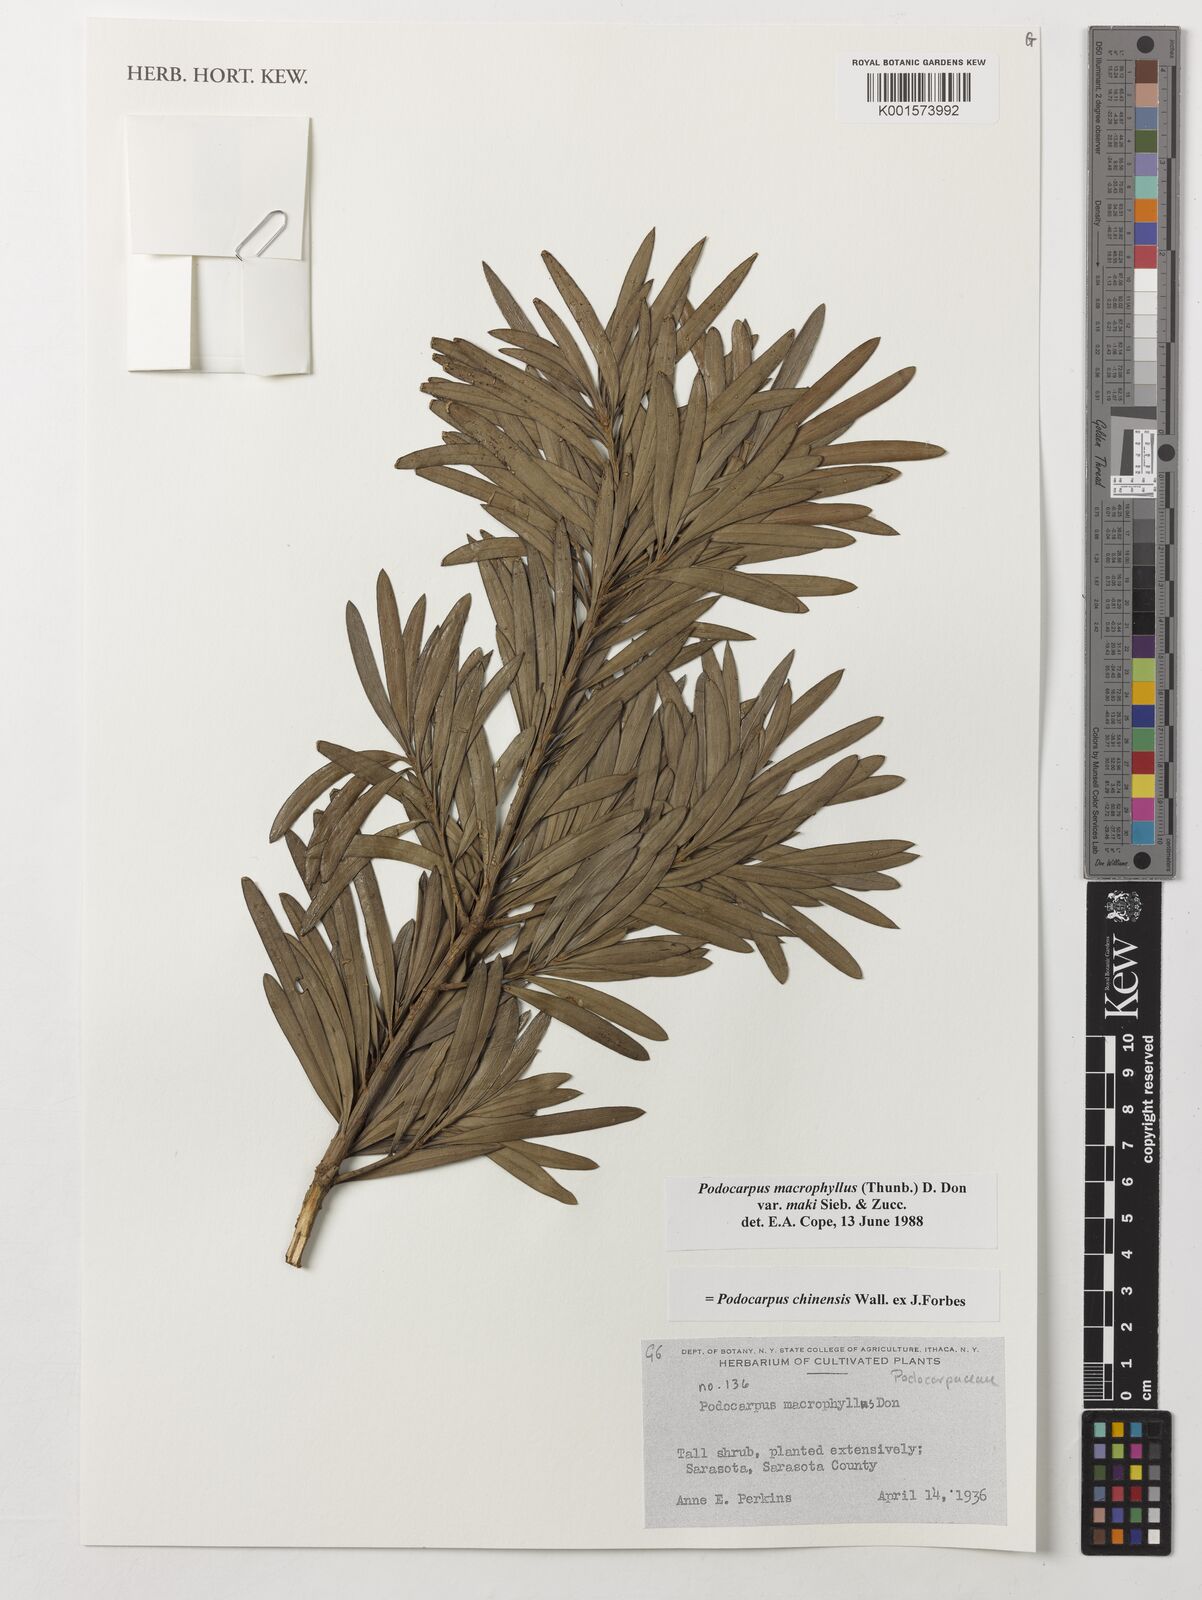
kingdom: Plantae
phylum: Tracheophyta
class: Pinopsida
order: Pinales
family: Podocarpaceae
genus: Podocarpus
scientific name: Podocarpus macrophyllus
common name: Japanese yew
